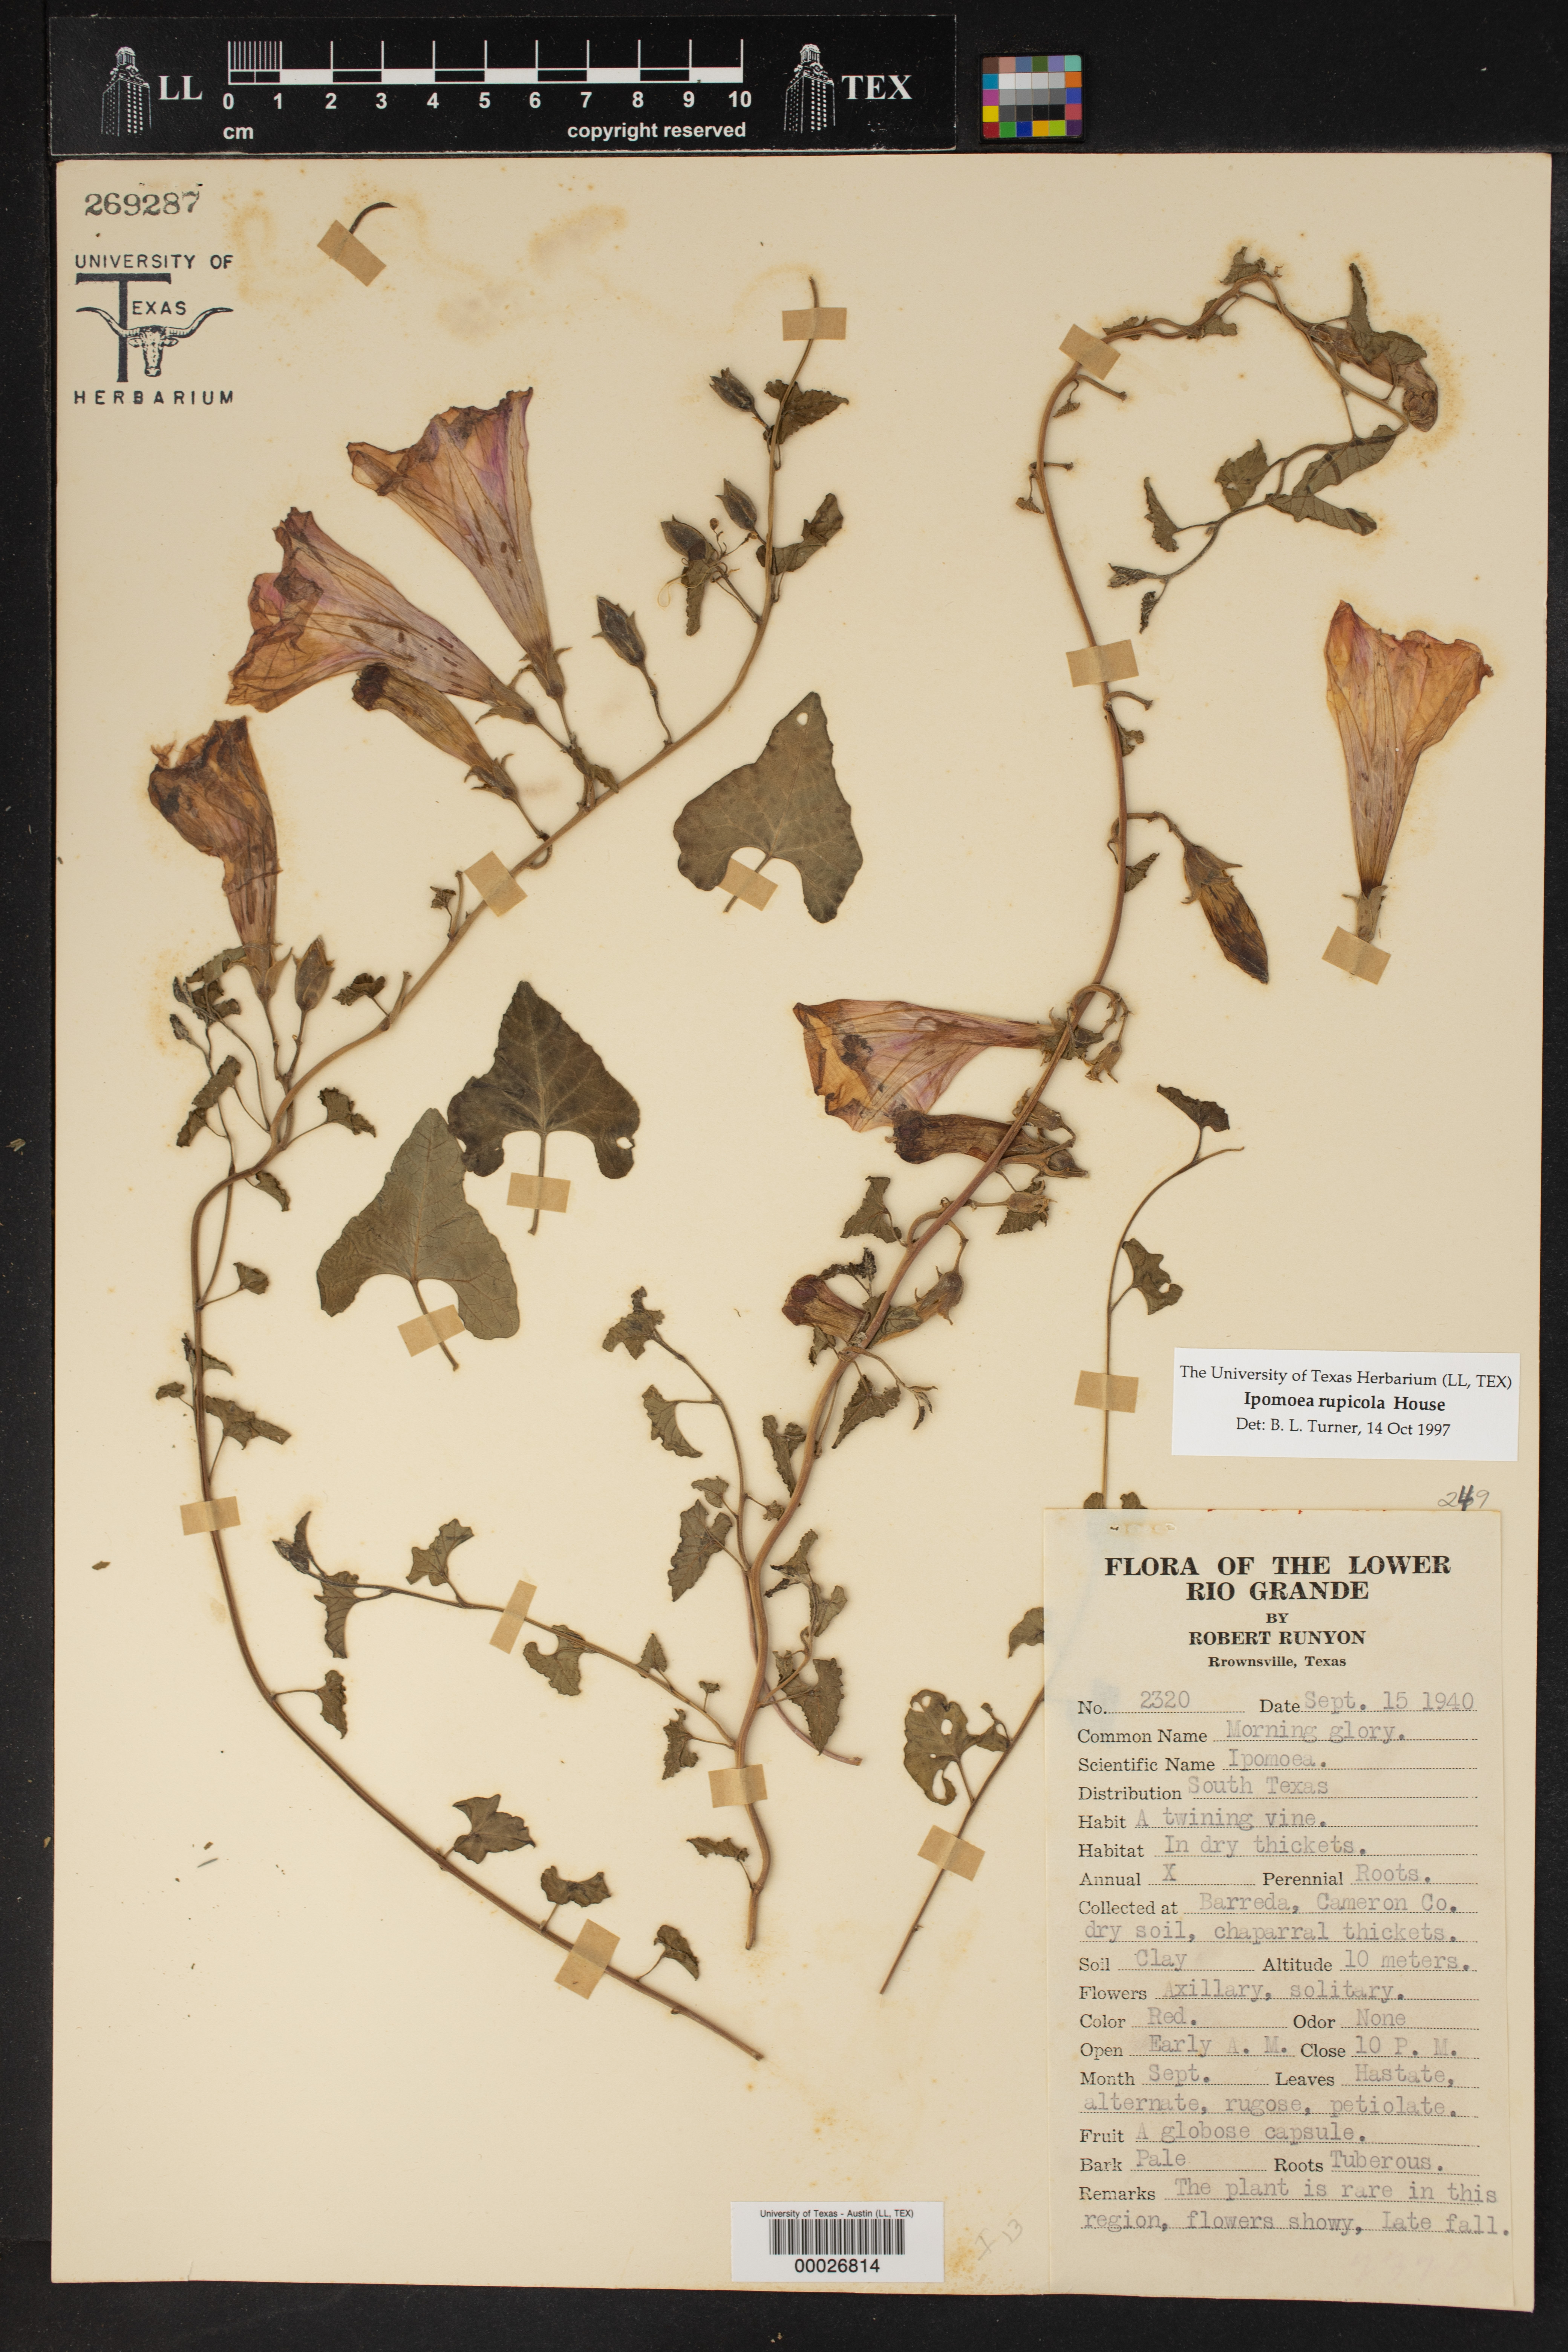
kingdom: Plantae
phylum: Tracheophyta
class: Magnoliopsida
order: Solanales
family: Convolvulaceae
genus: Ipomoea
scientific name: Ipomoea rupicola
